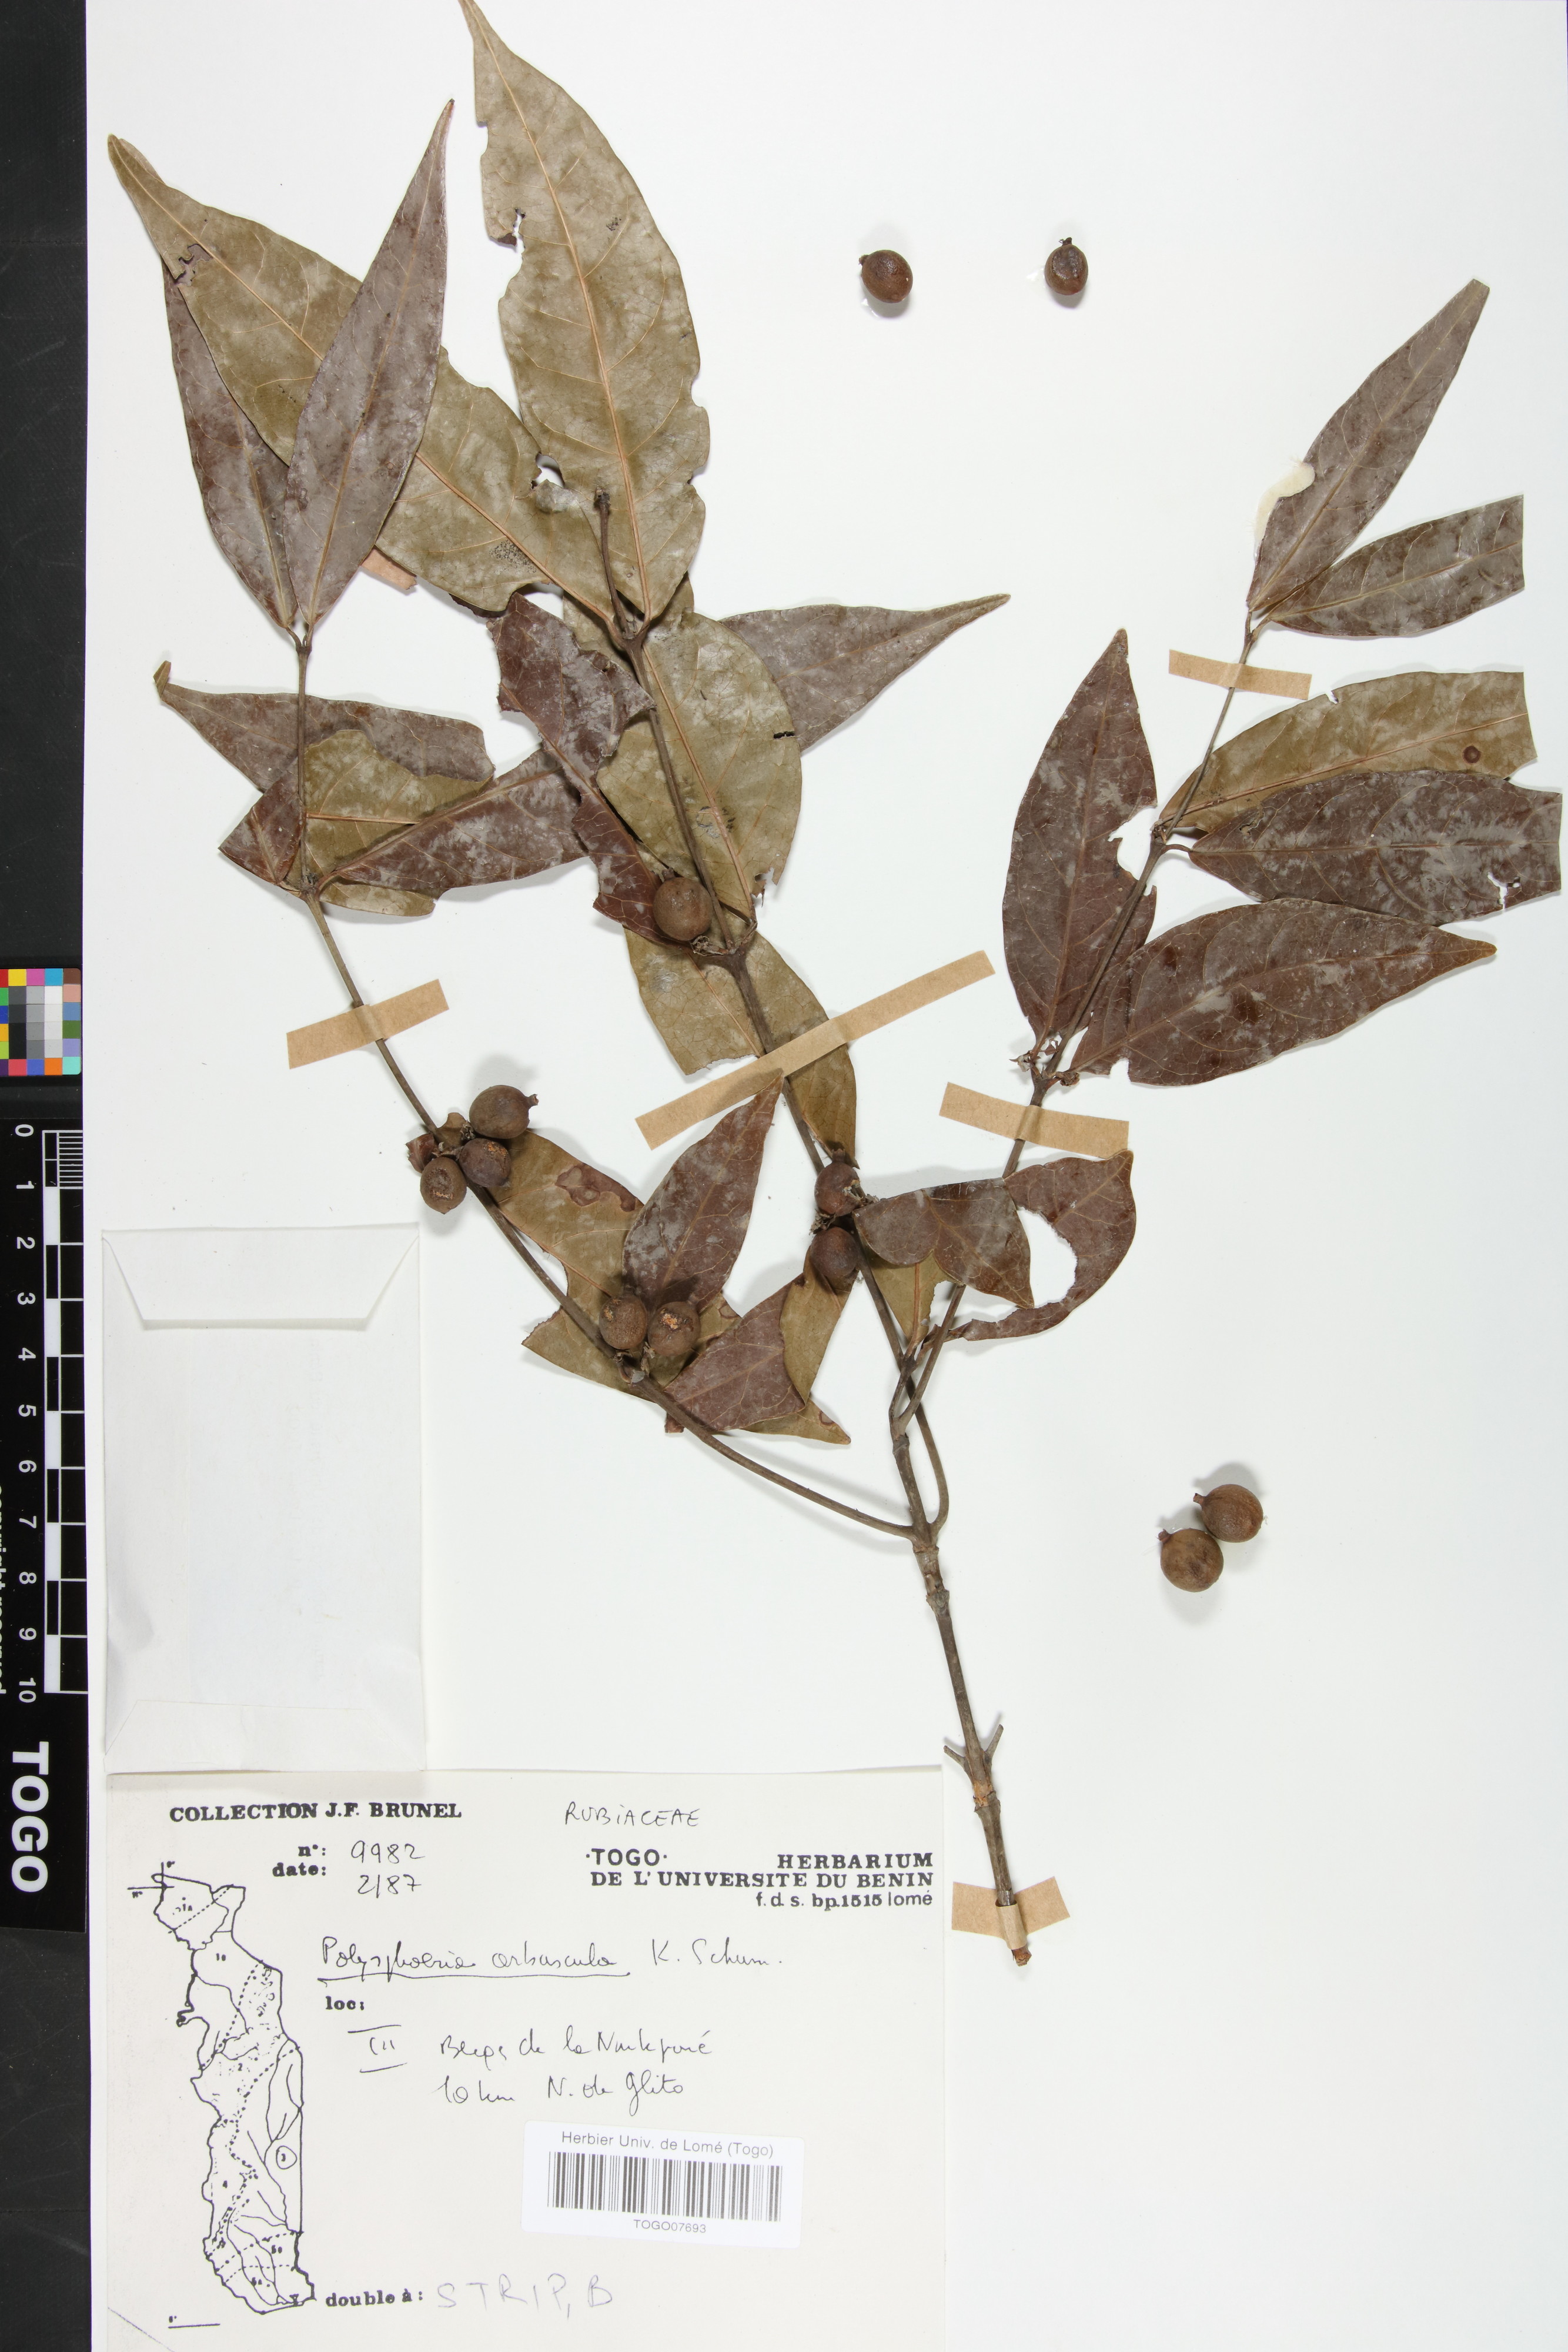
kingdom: Plantae
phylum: Tracheophyta
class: Magnoliopsida
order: Gentianales
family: Rubiaceae
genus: Polysphaeria
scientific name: Polysphaeria arbuscula
